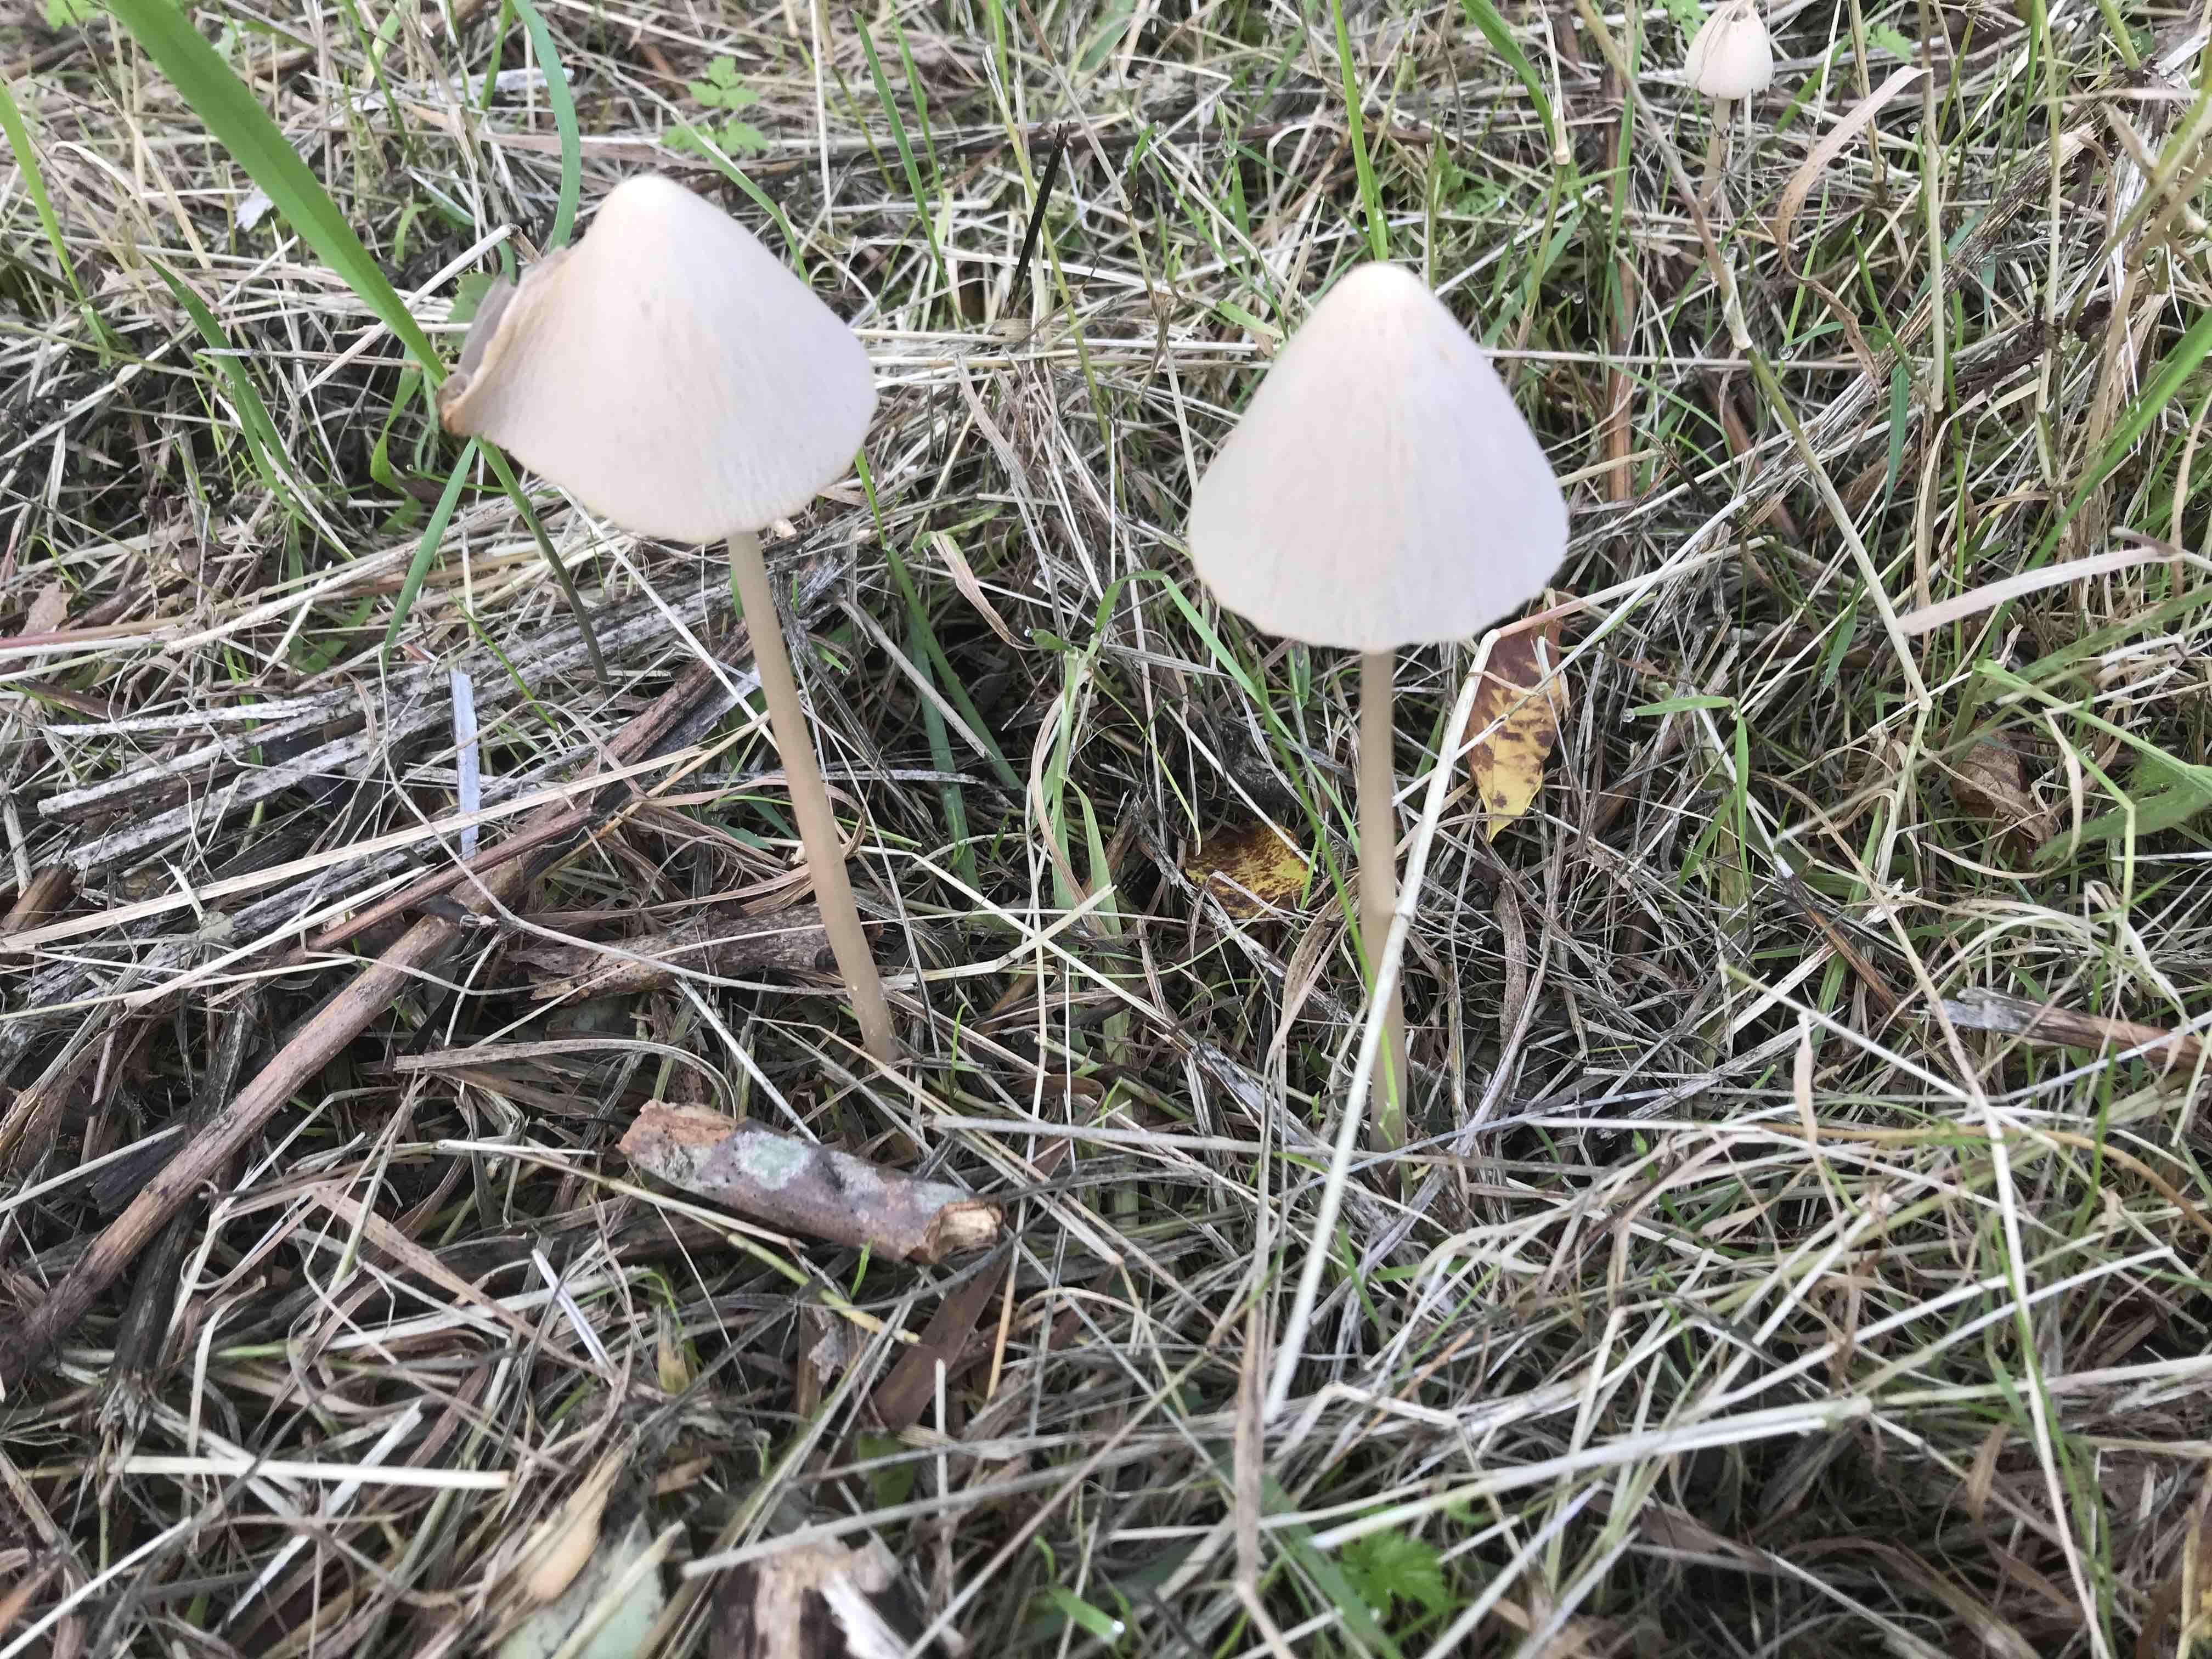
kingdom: Fungi
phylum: Basidiomycota
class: Agaricomycetes
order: Agaricales
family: Psathyrellaceae
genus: Parasola
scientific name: Parasola conopilea
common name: kegle-hjulhat
